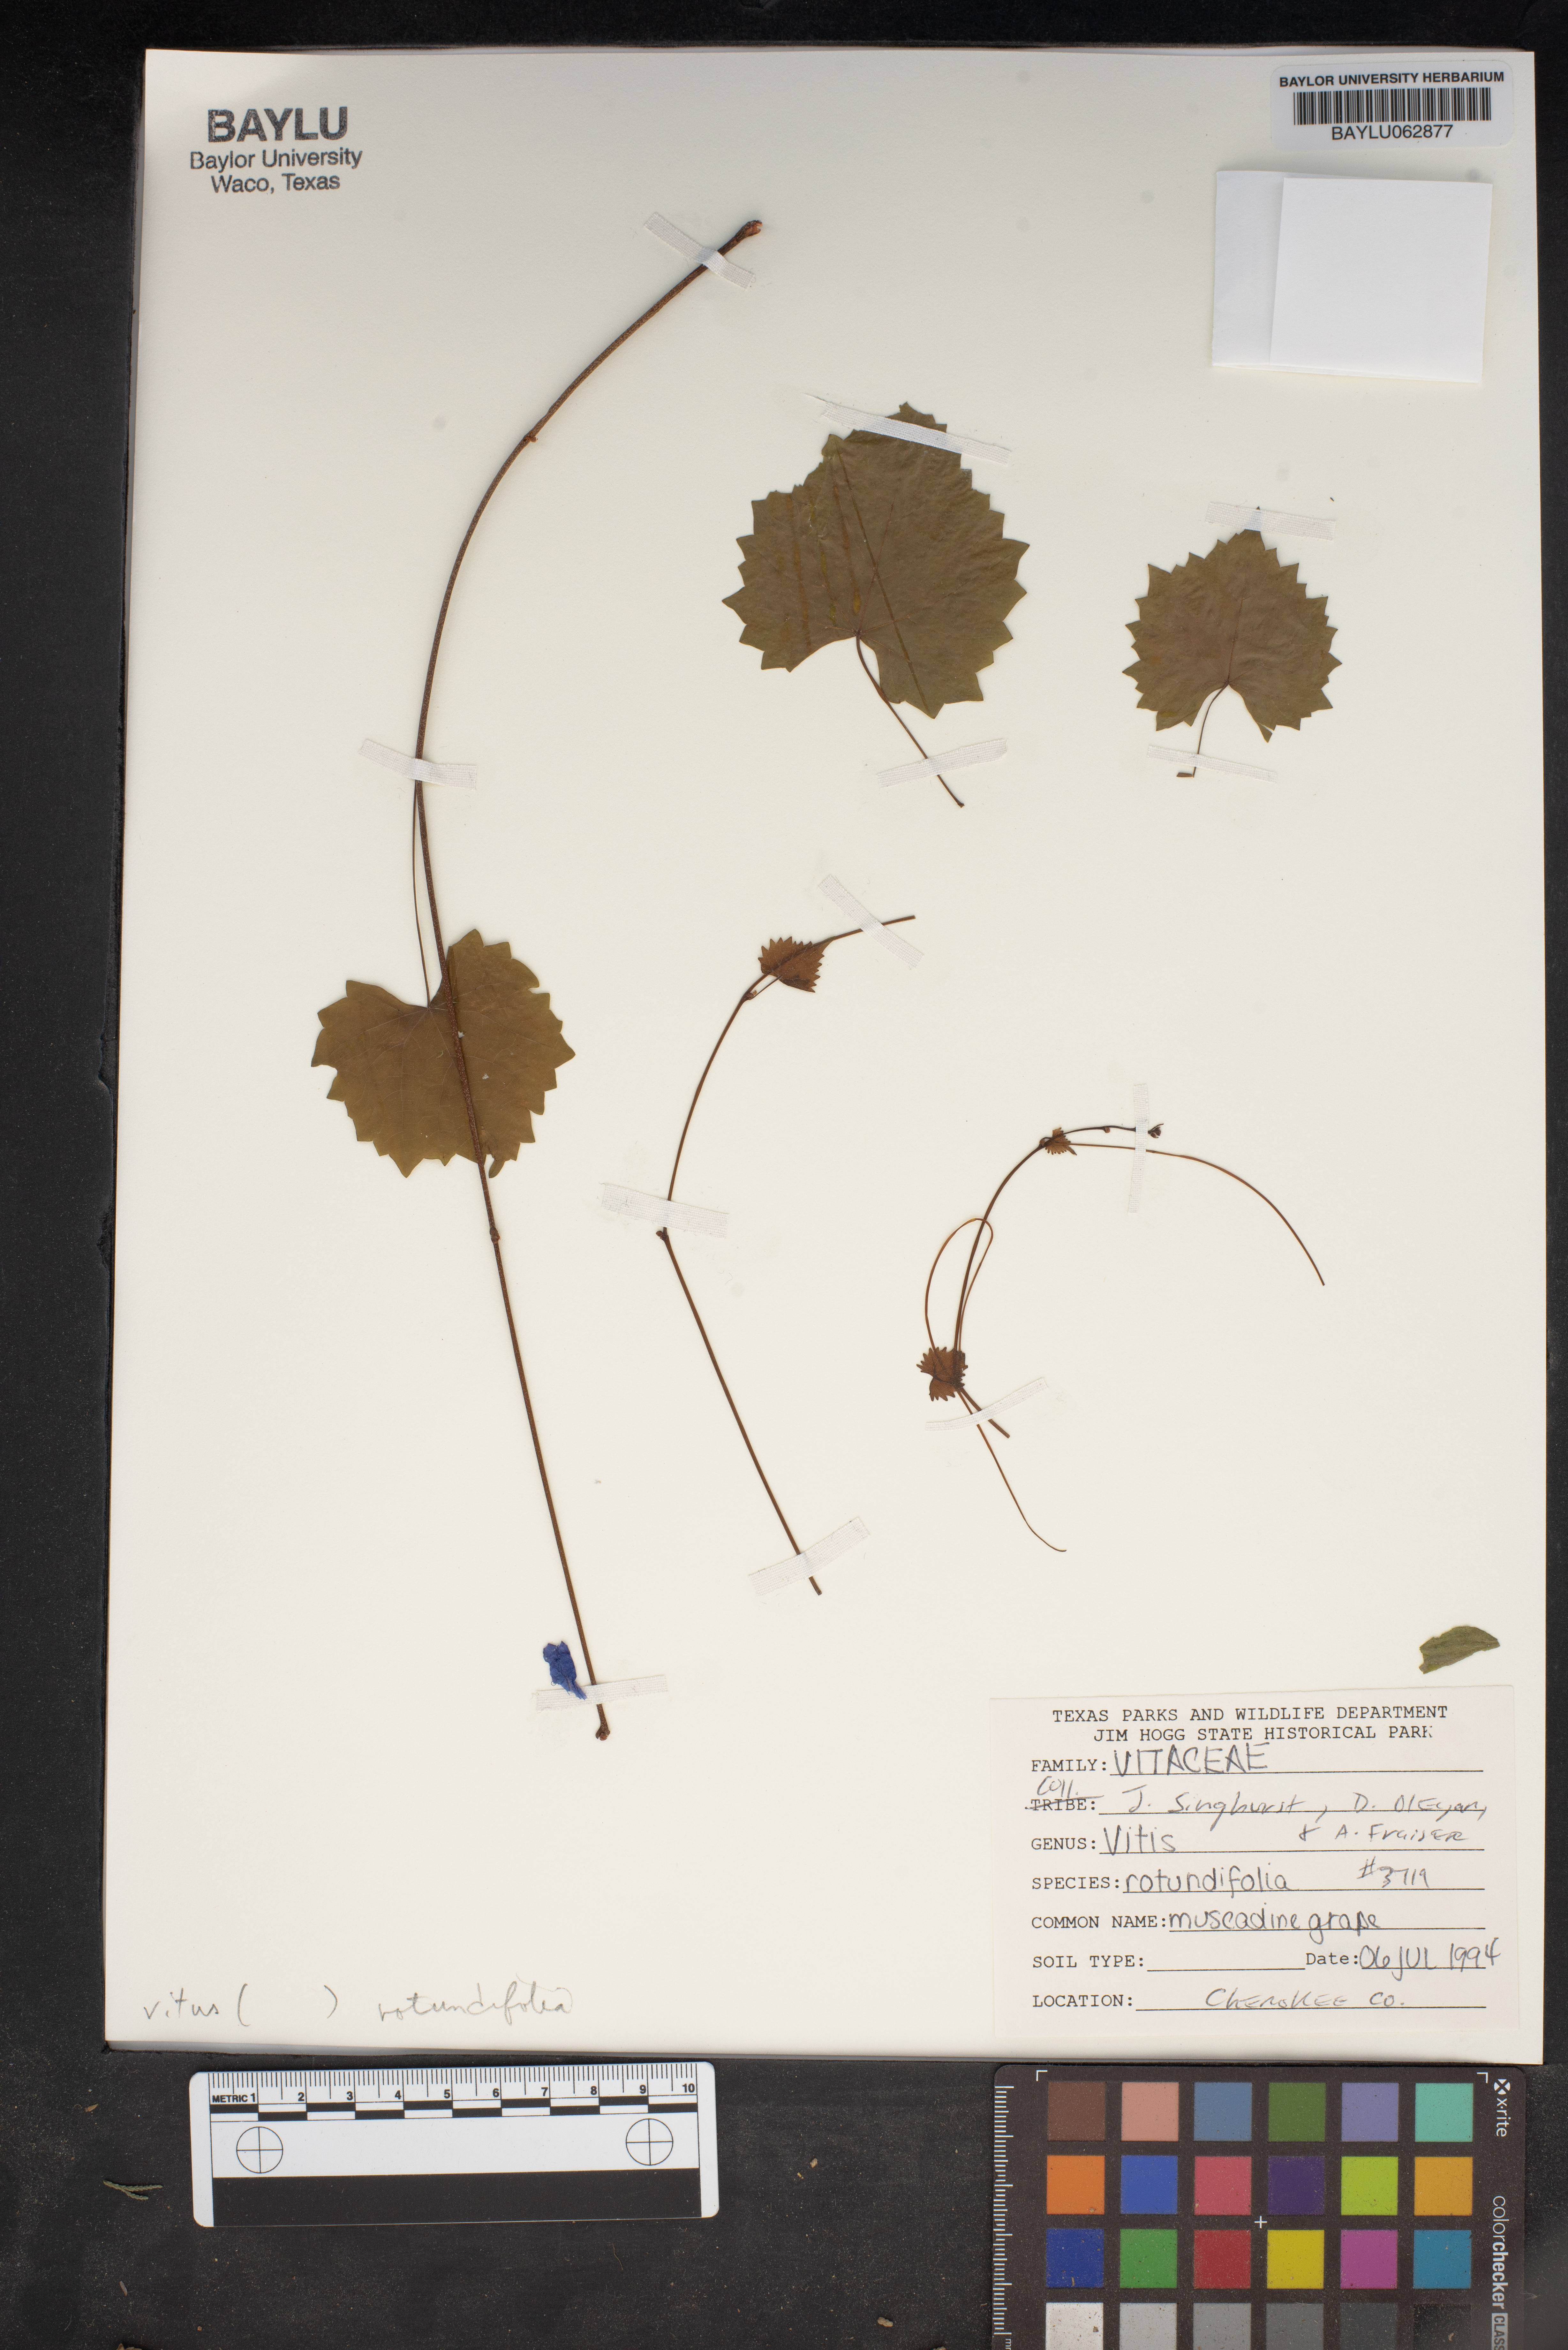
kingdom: Plantae
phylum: Tracheophyta
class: Magnoliopsida
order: Vitales
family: Vitaceae
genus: Vitis
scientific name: Vitis rotundifolia
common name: Muscadine grape
